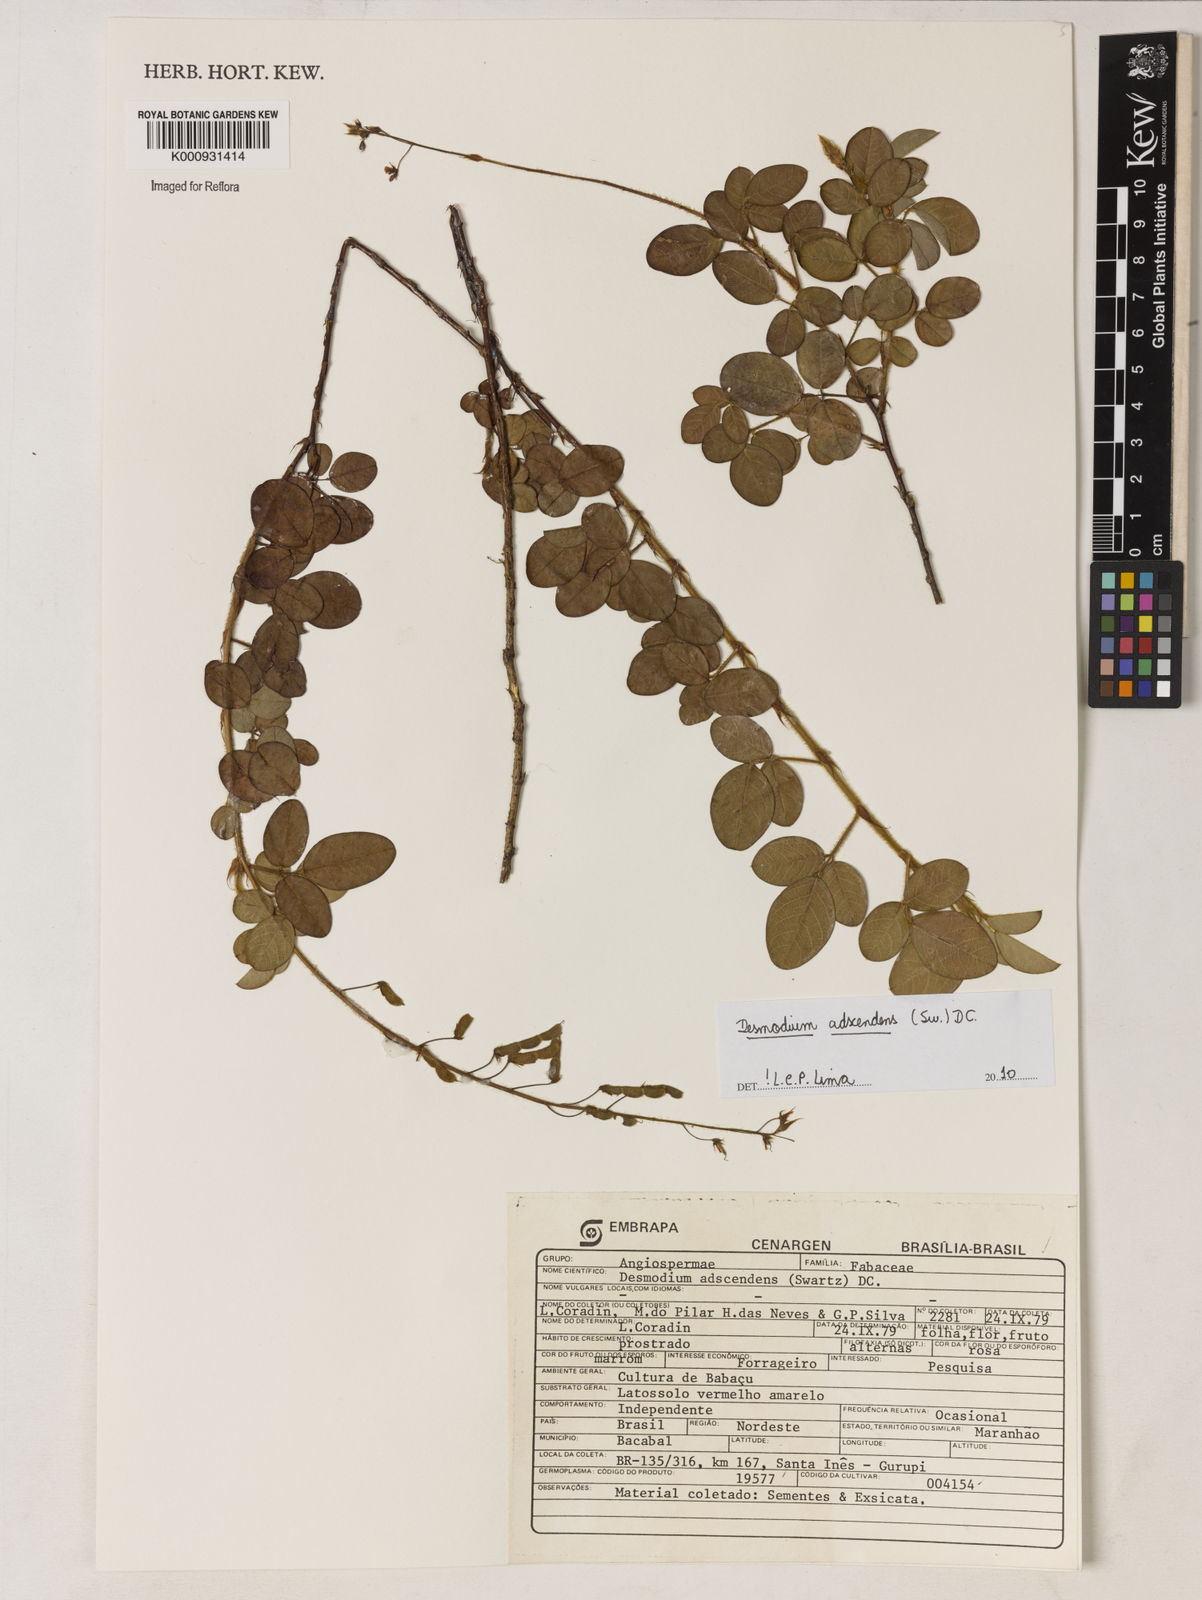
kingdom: Plantae
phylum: Tracheophyta
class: Magnoliopsida
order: Fabales
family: Fabaceae
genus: Grona
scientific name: Grona adscendens
